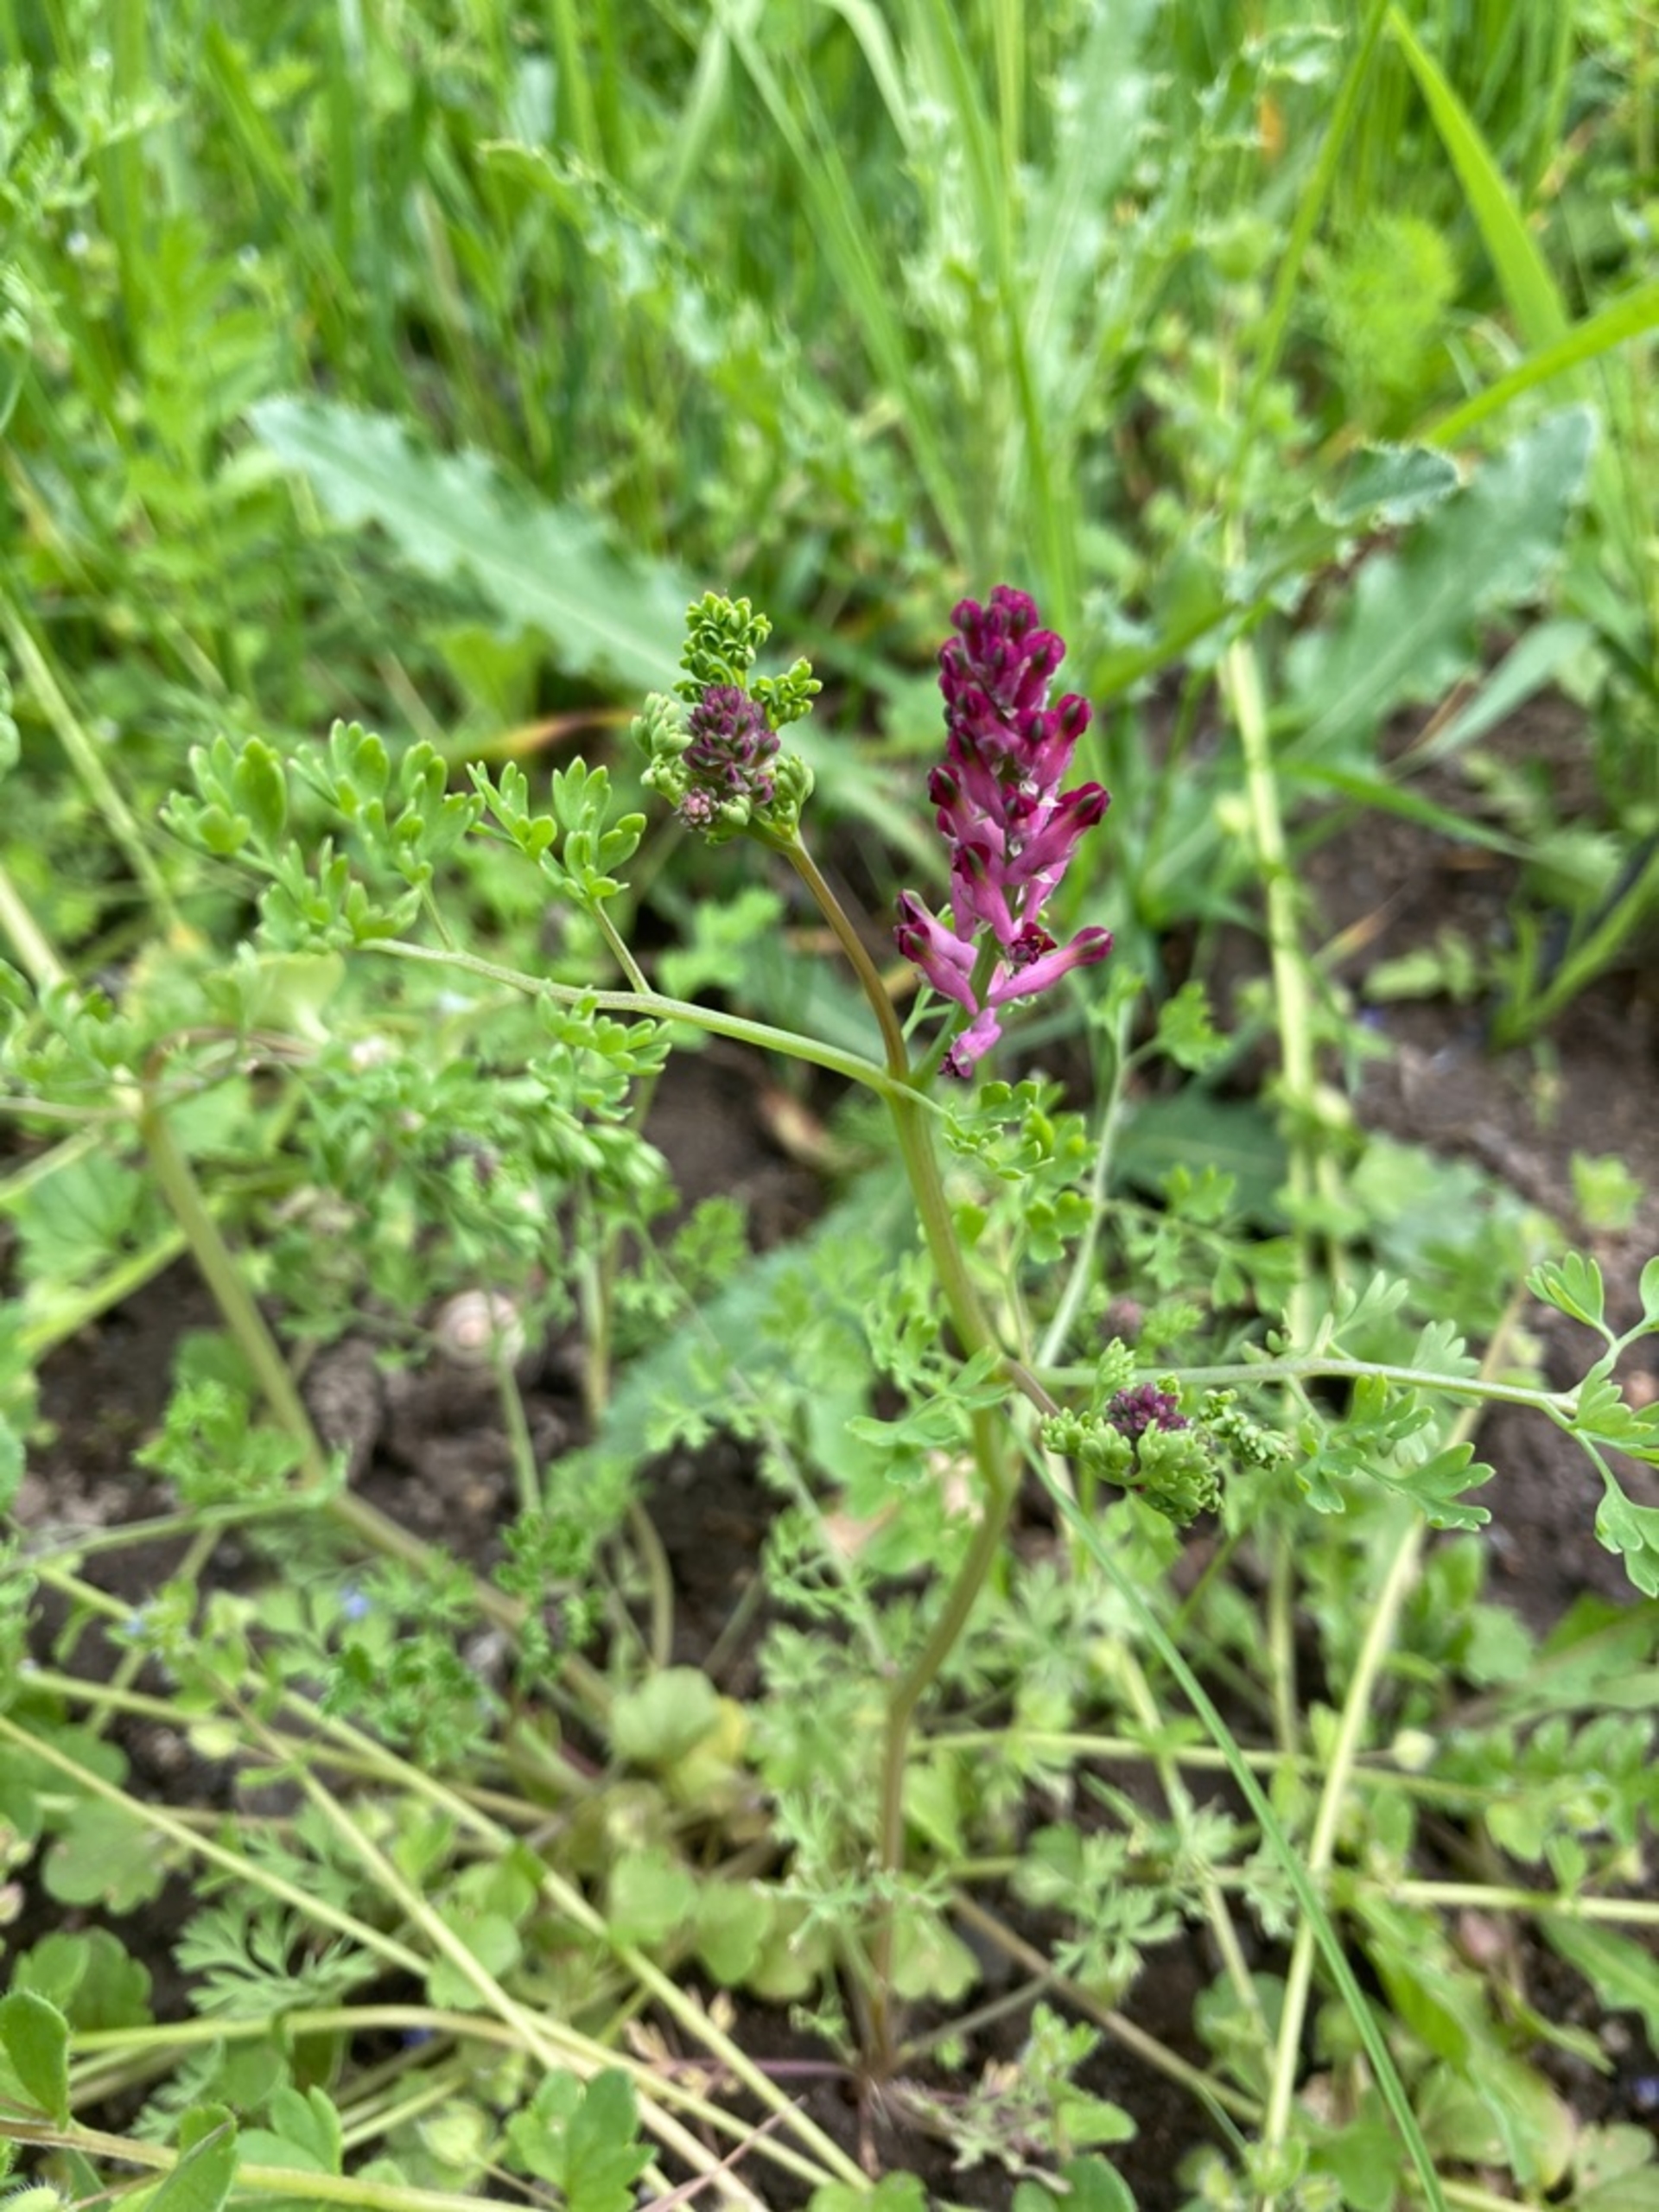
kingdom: Plantae
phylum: Tracheophyta
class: Magnoliopsida
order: Ranunculales
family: Papaveraceae
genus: Fumaria
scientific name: Fumaria officinalis
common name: Læge-jordrøg
